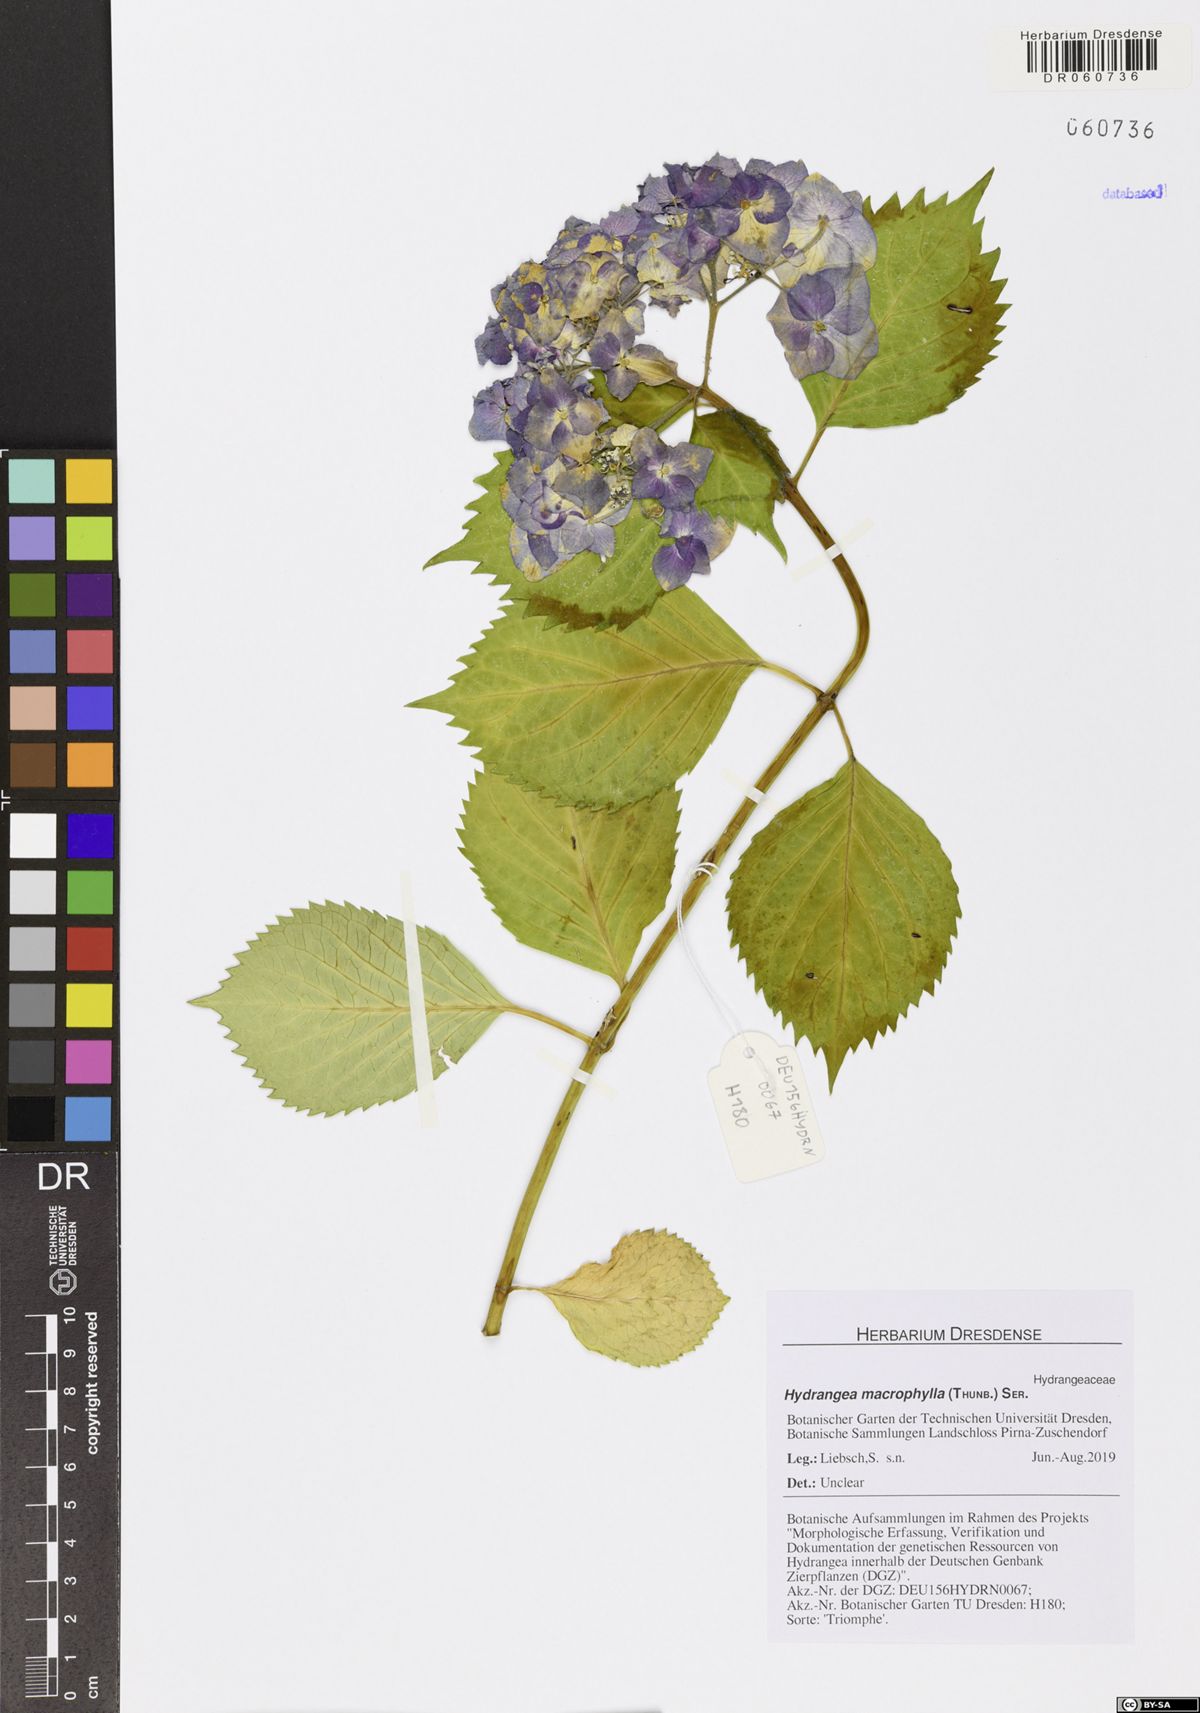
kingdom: Plantae
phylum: Tracheophyta
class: Magnoliopsida
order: Cornales
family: Hydrangeaceae
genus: Hydrangea
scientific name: Hydrangea macrophylla
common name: Hydrangea
